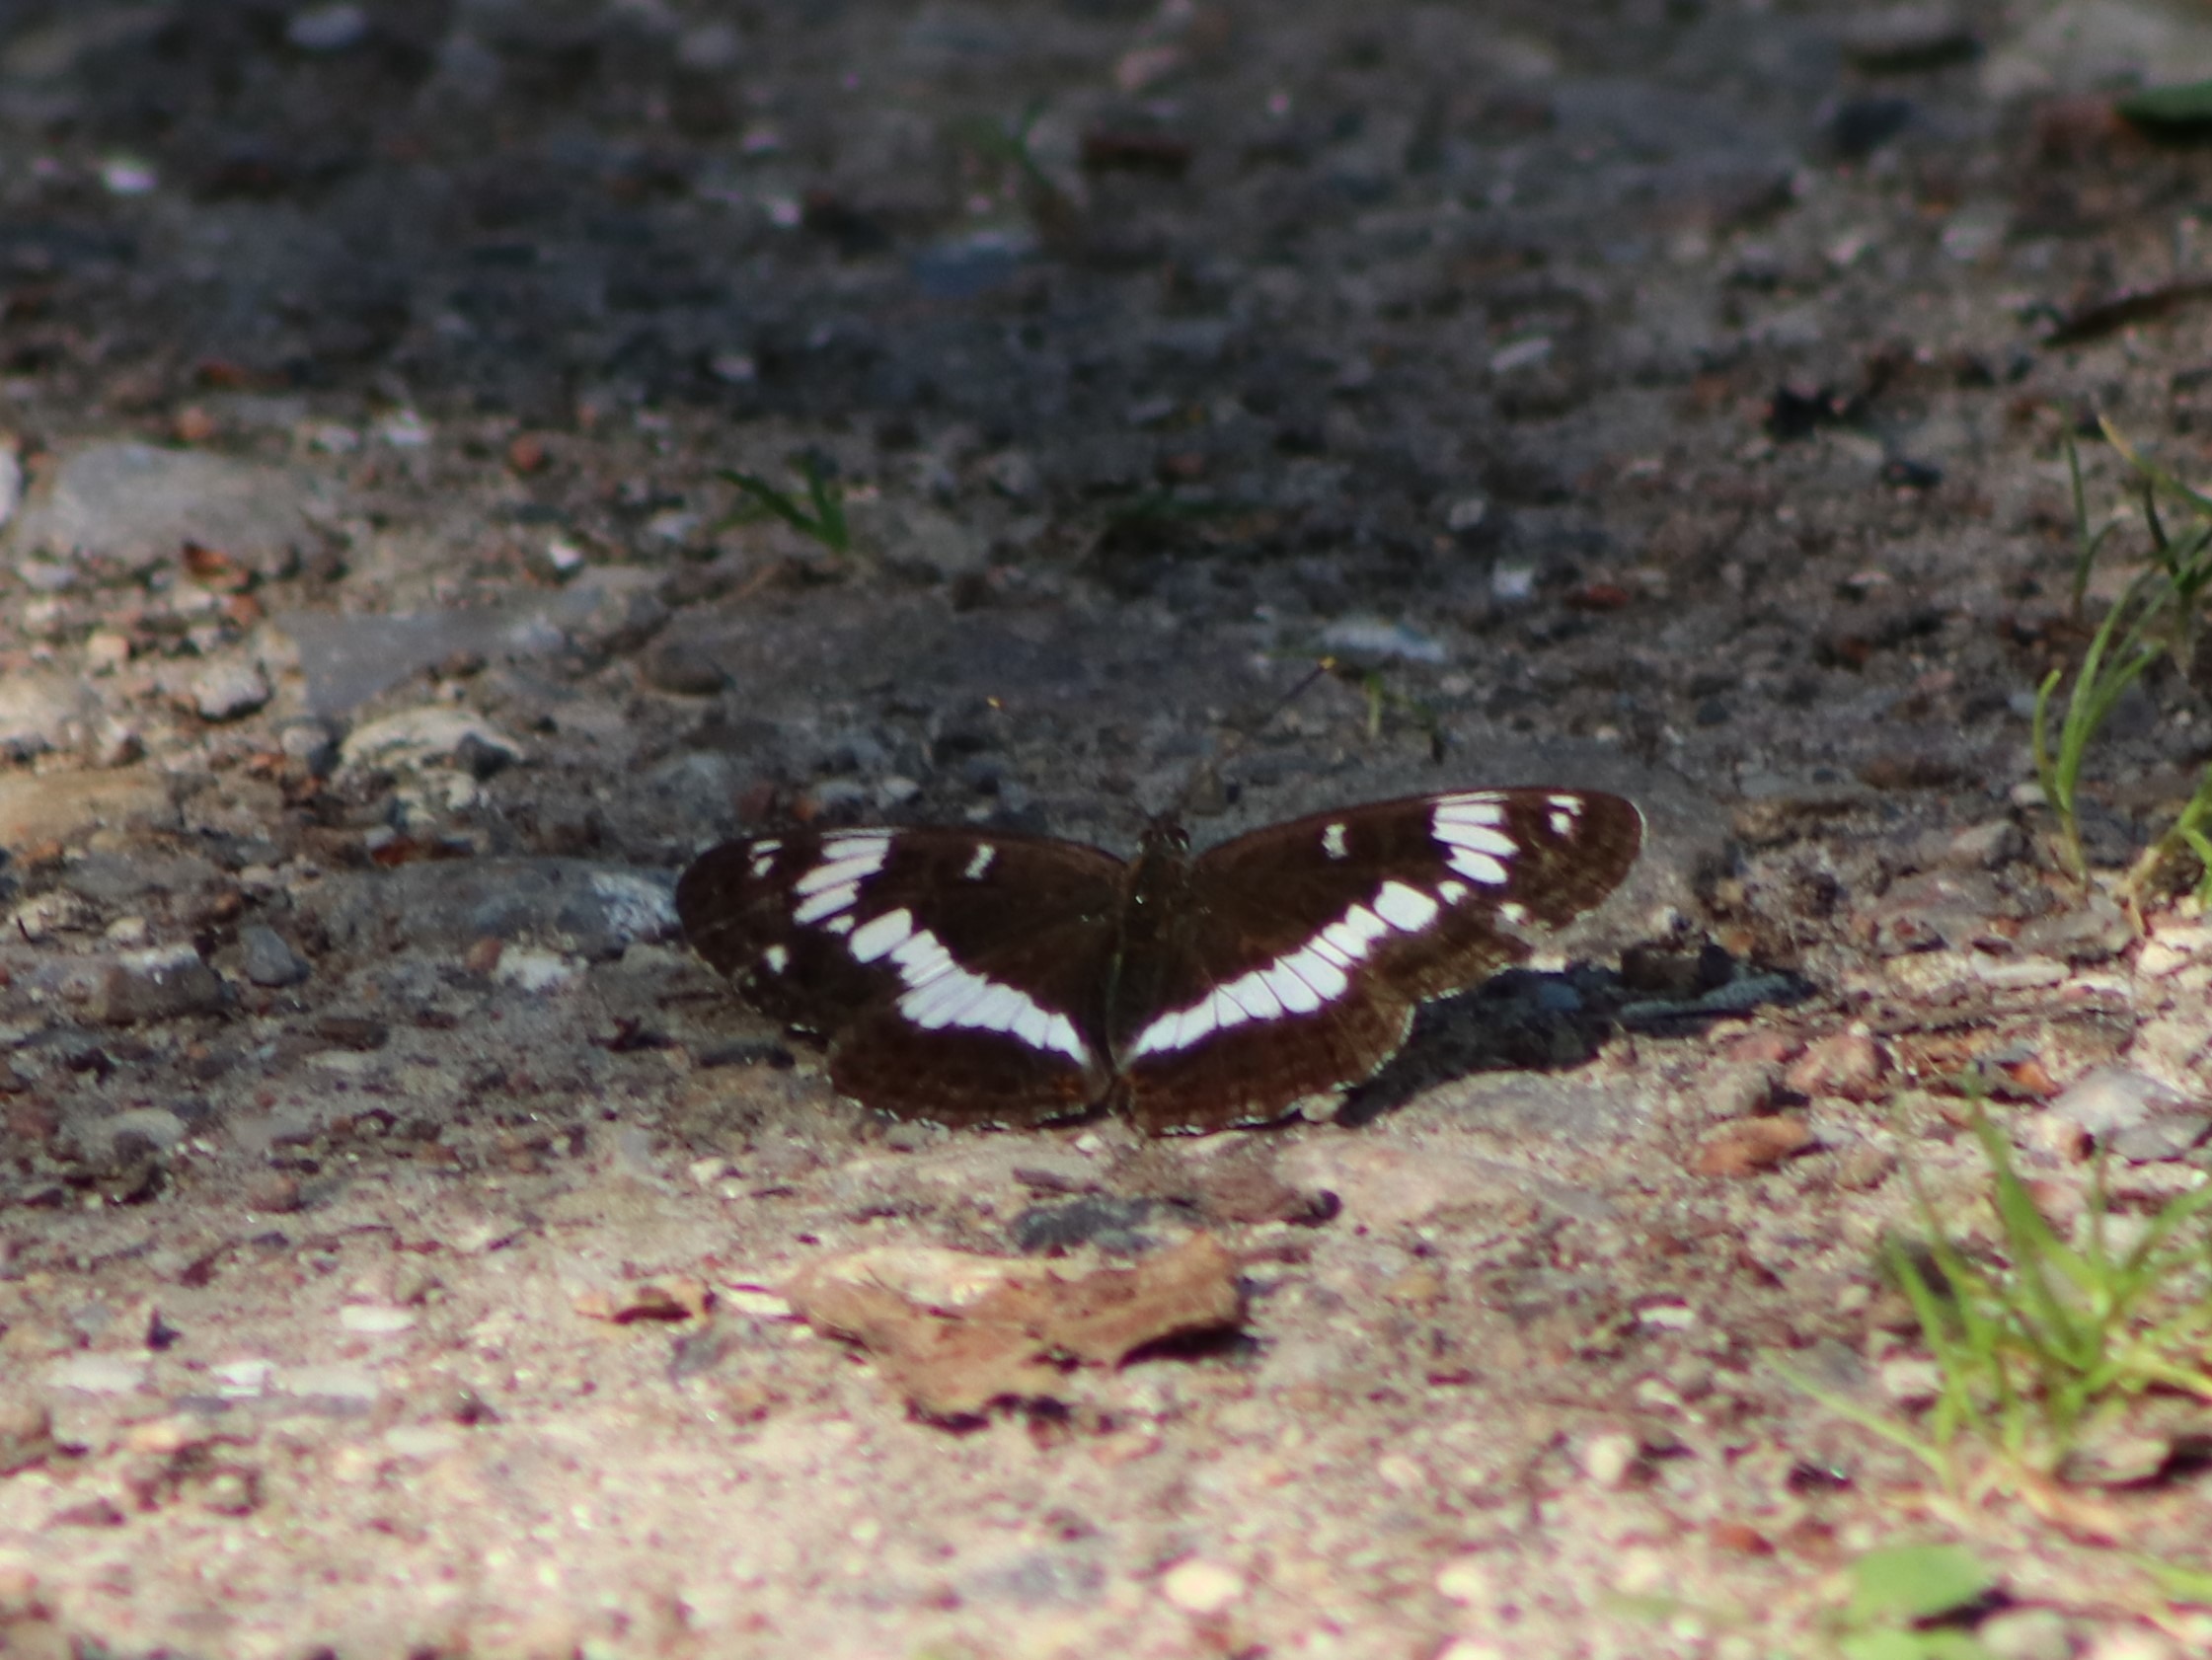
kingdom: Animalia
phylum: Arthropoda
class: Insecta
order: Lepidoptera
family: Nymphalidae
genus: Ladoga
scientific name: Ladoga camilla
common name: Hvid admiral
